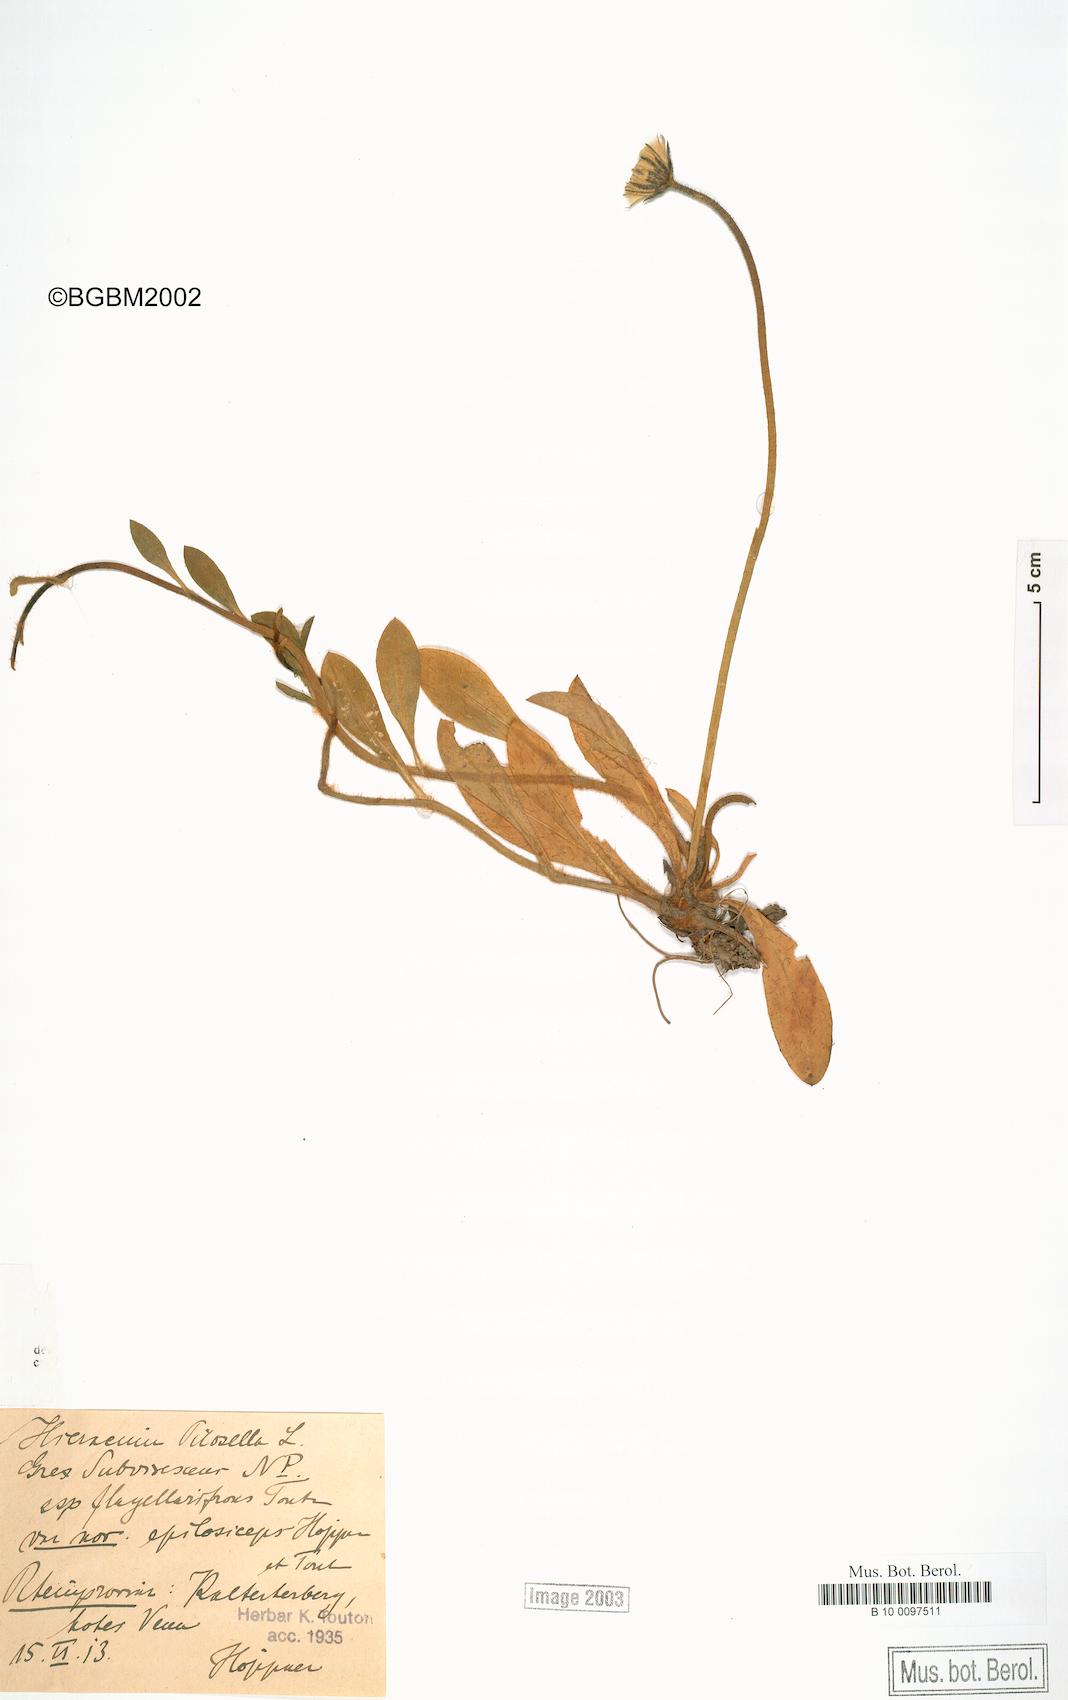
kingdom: Plantae
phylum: Tracheophyta
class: Magnoliopsida
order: Asterales
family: Asteraceae
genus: Pilosella
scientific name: Pilosella officinarum
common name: Mouse-ear hawkweed
